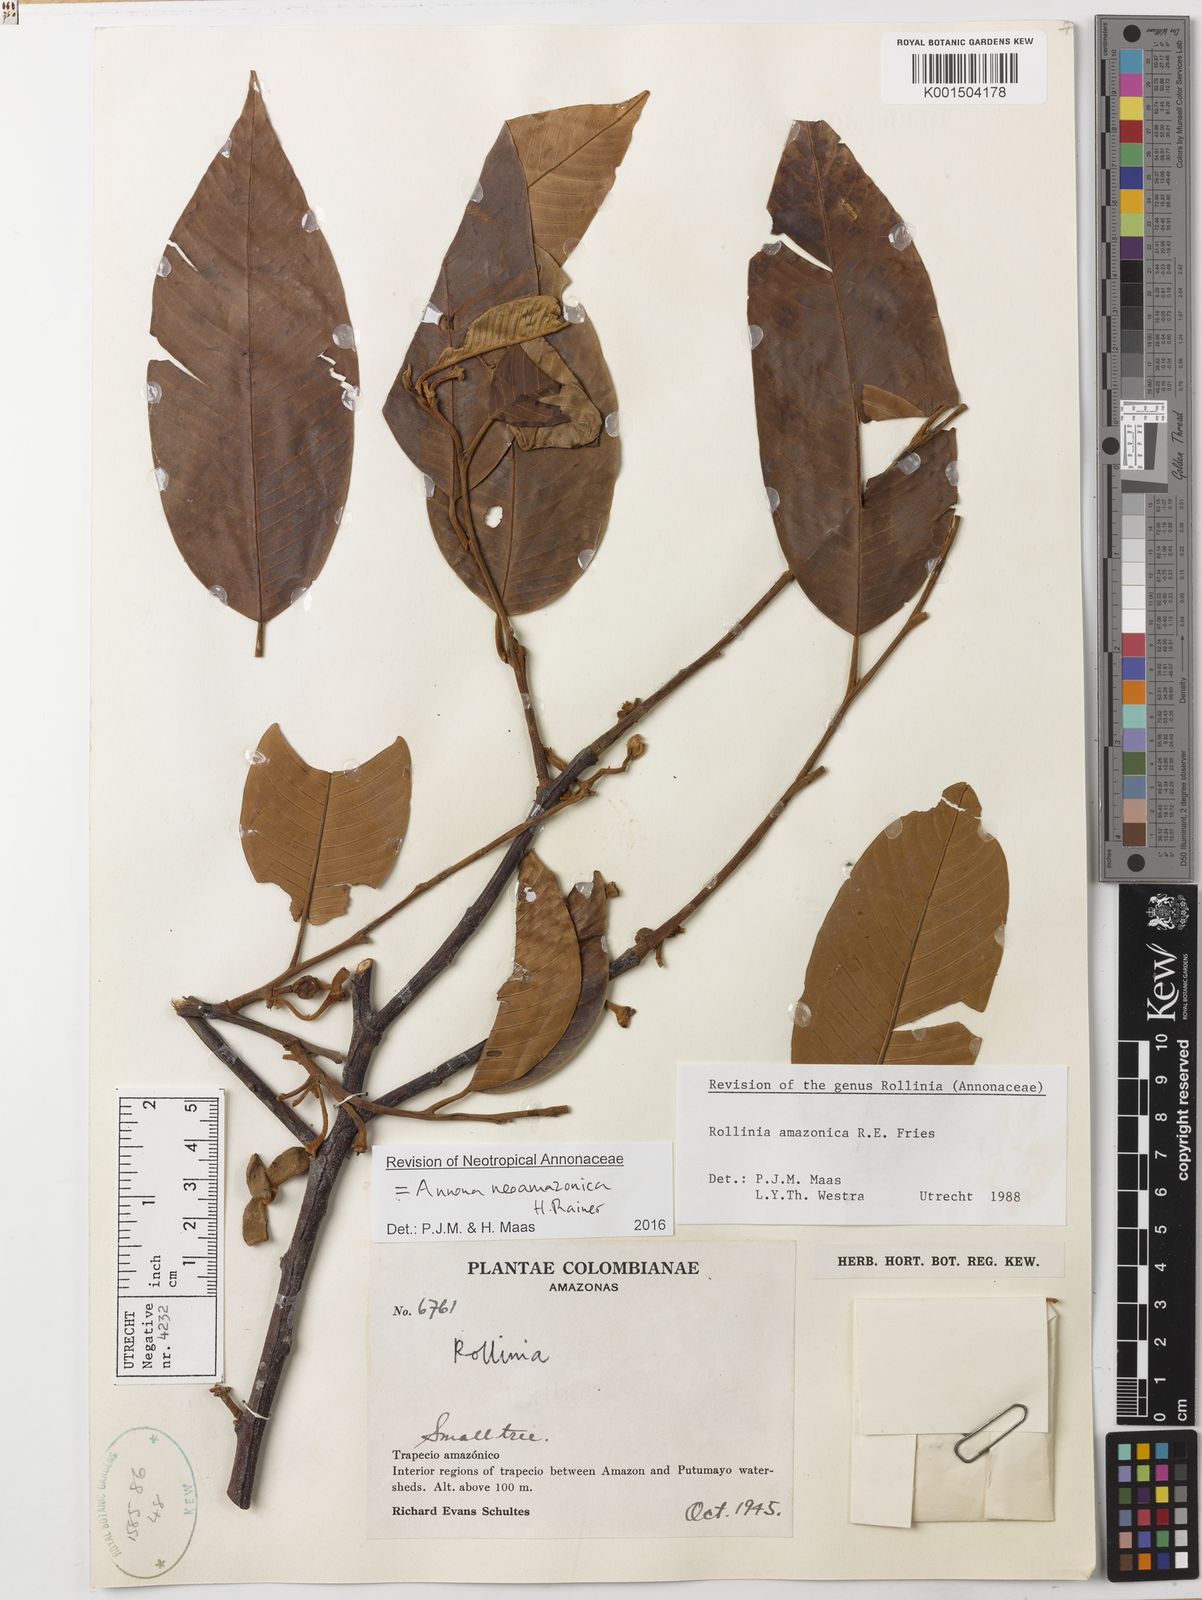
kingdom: Plantae
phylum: Tracheophyta
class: Magnoliopsida
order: Magnoliales
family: Annonaceae
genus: Annona
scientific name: Annona neoamazonica
